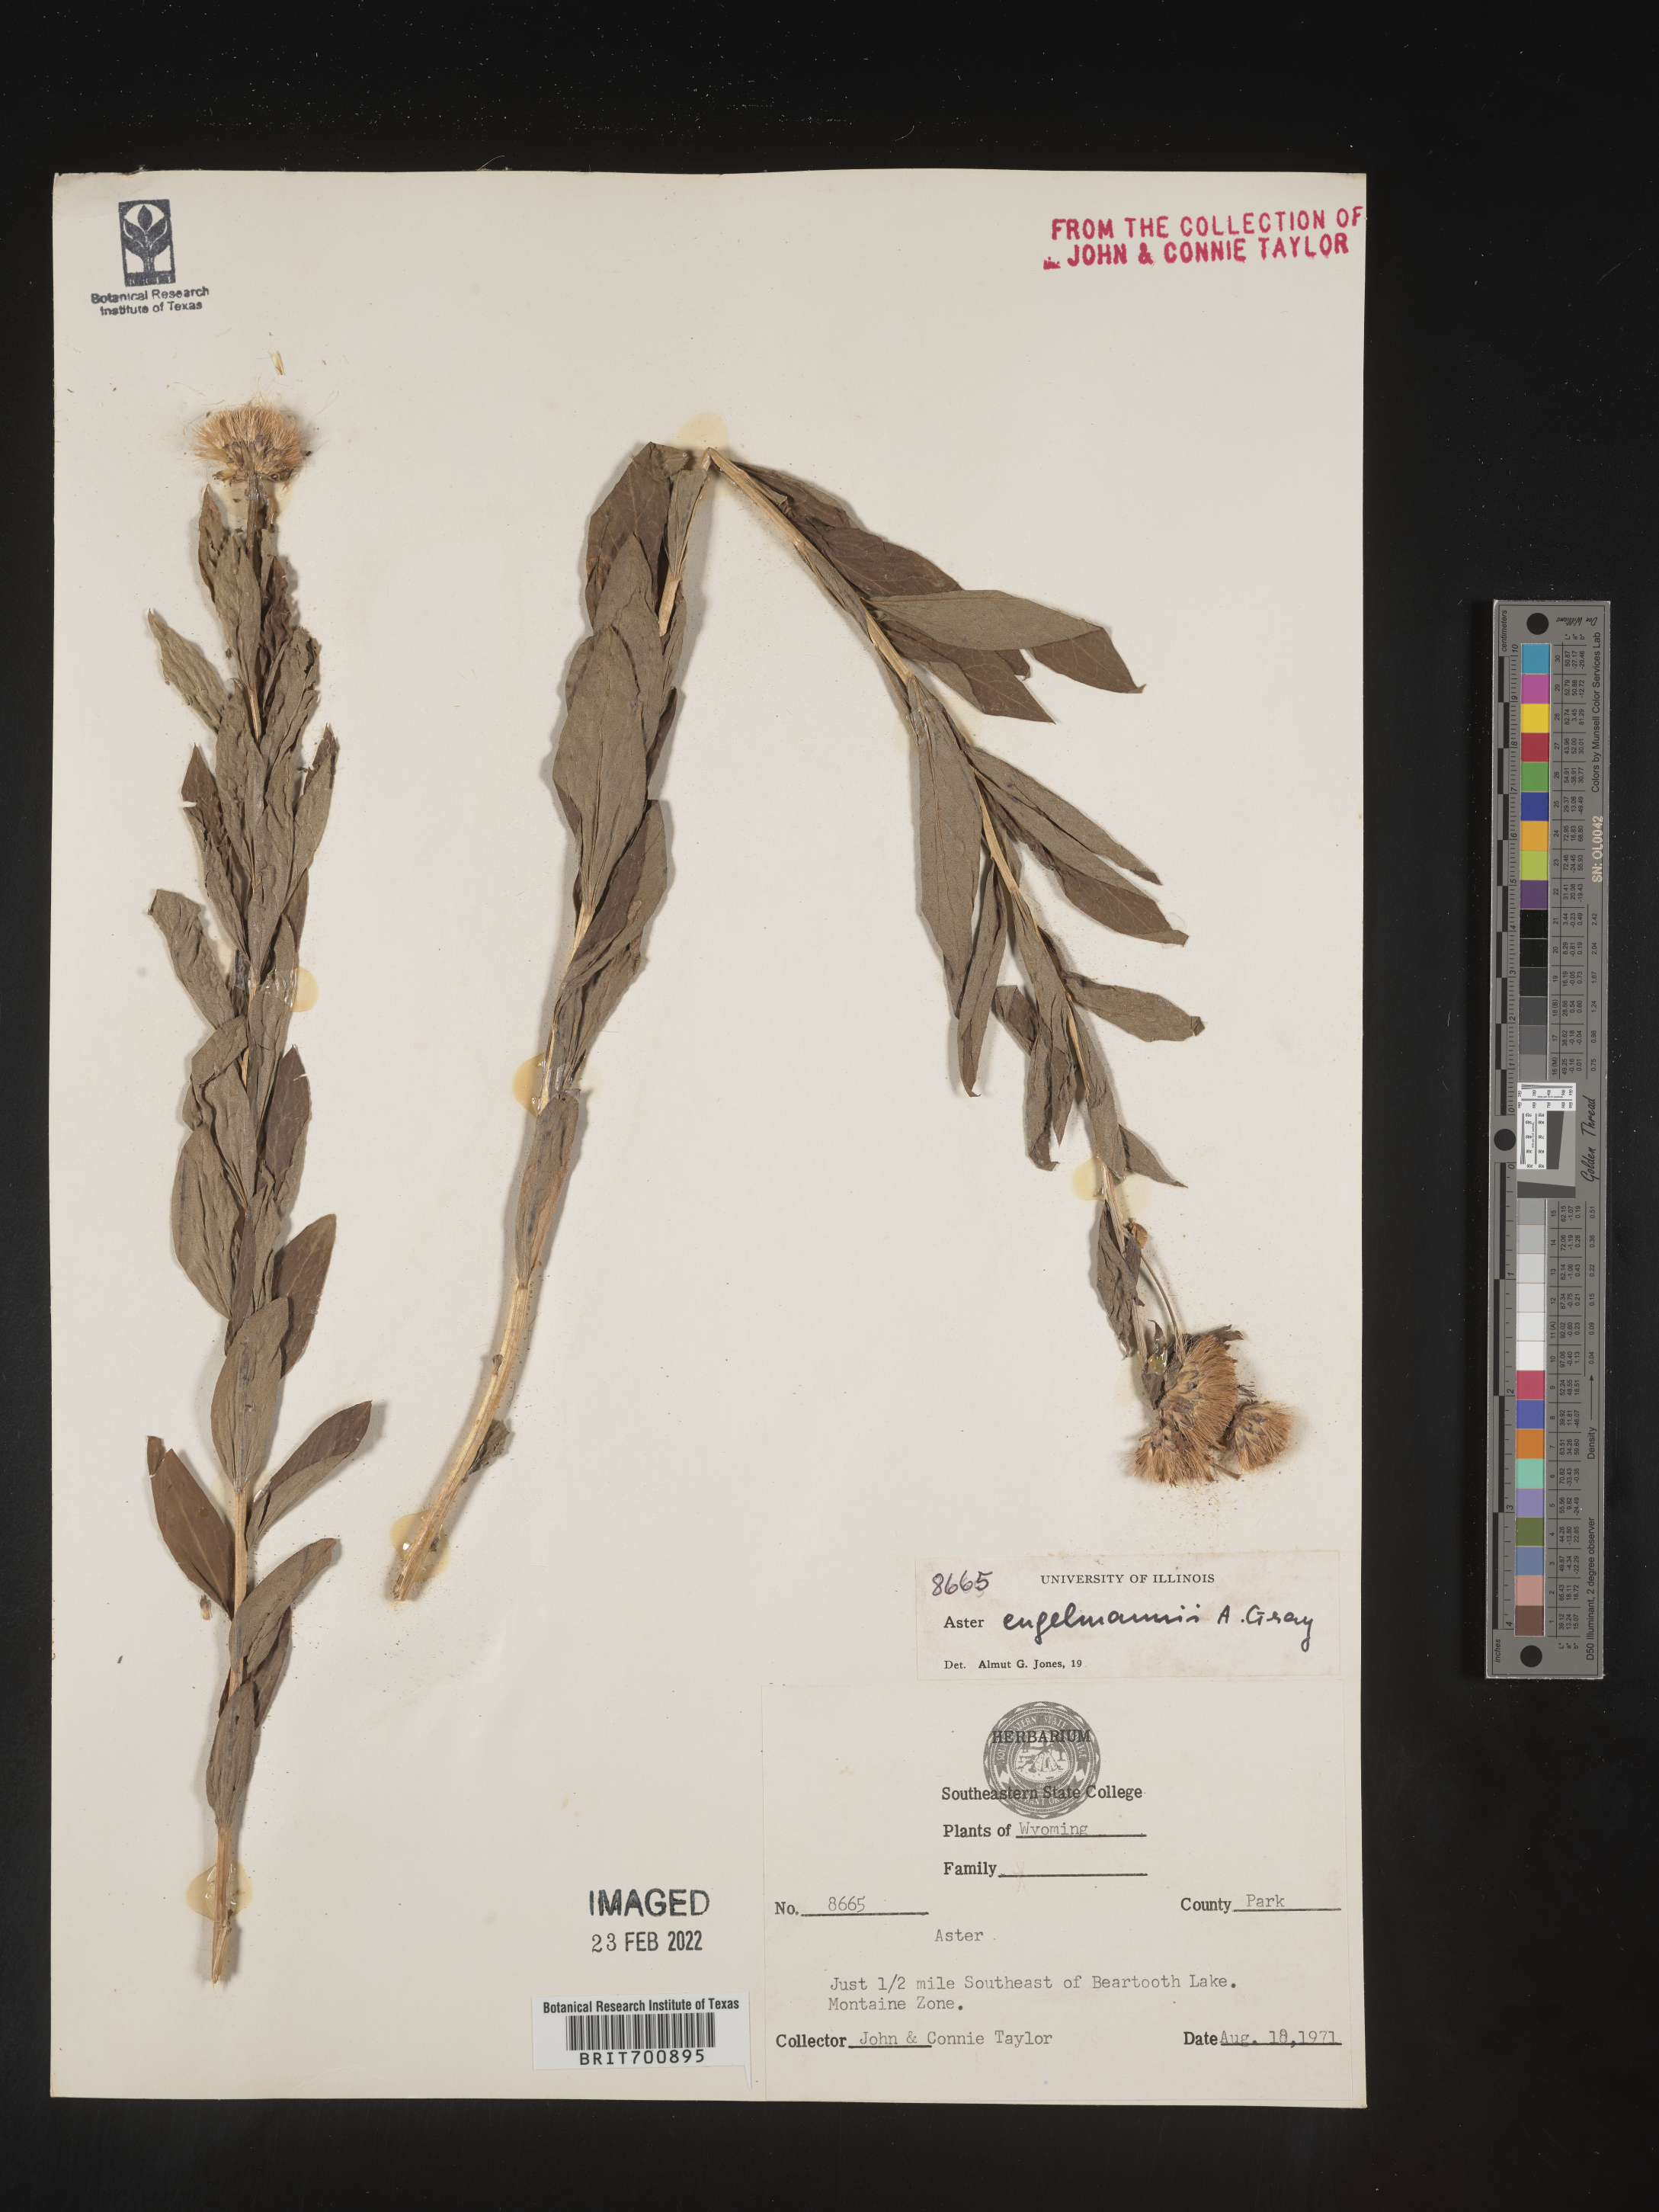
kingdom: Plantae
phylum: Tracheophyta
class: Magnoliopsida
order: Asterales
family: Asteraceae
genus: Eucephalus
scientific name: Eucephalus engelmannii
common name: Engelmann's aster
